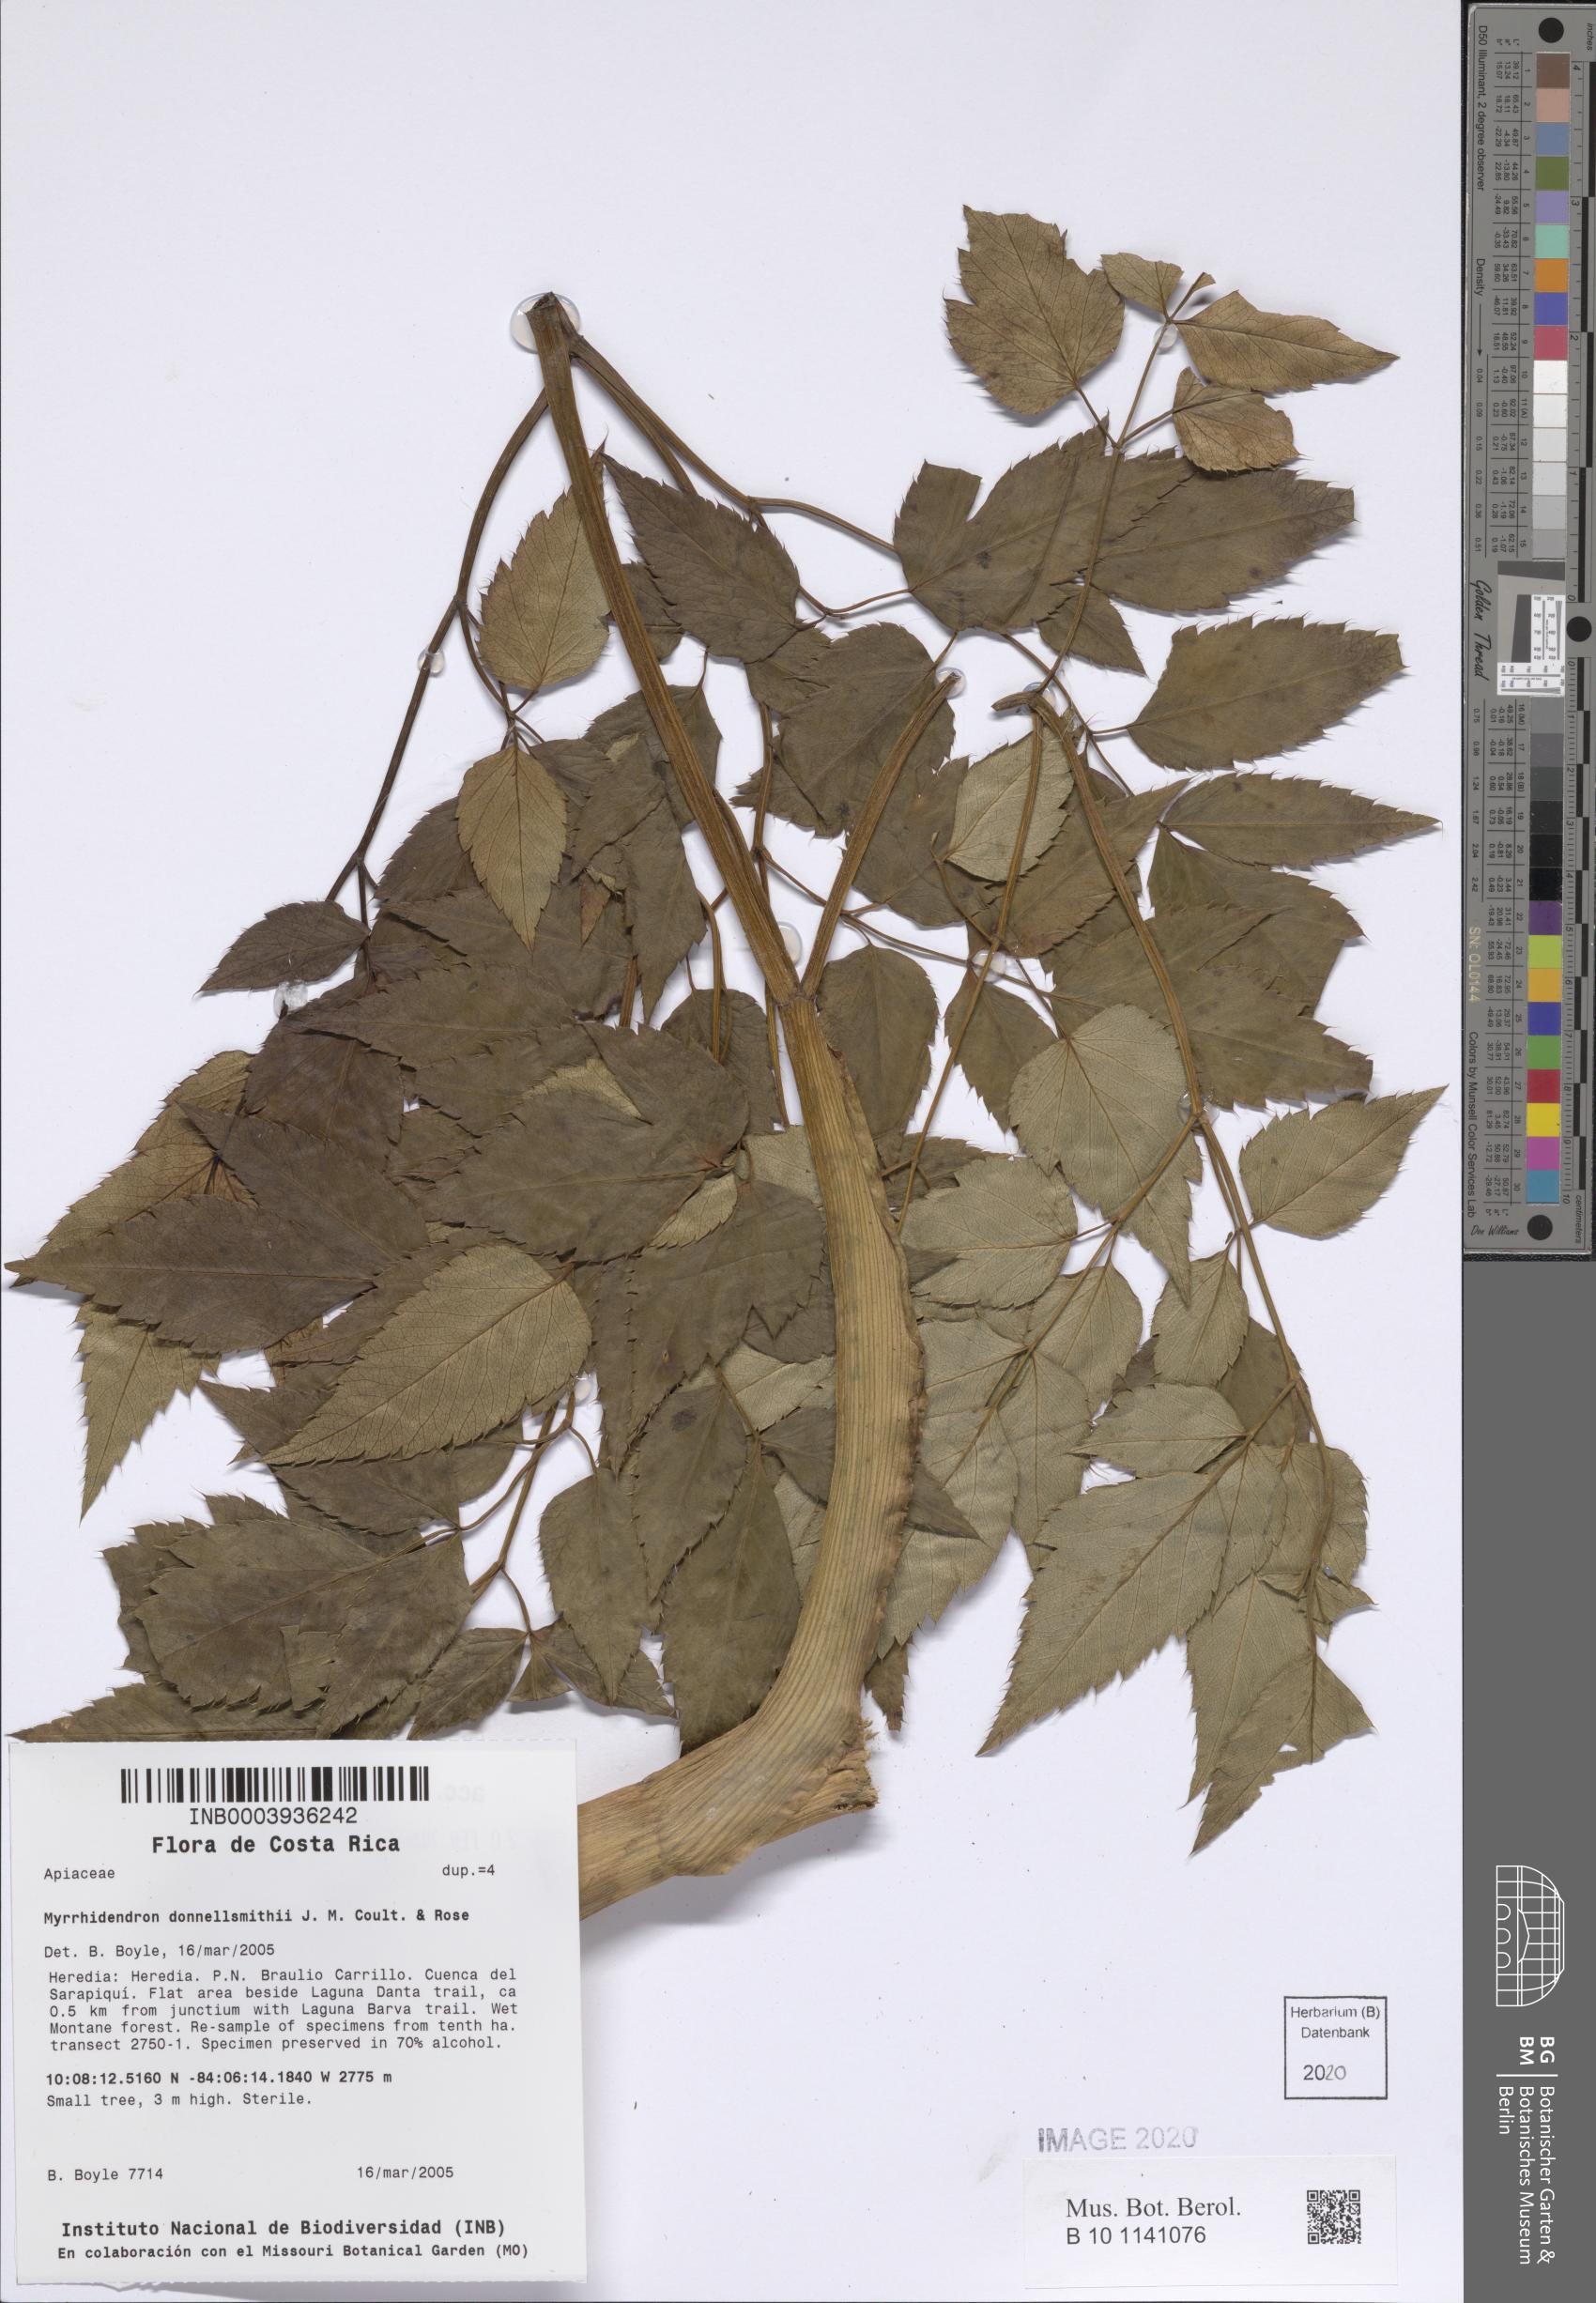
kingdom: Plantae
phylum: Tracheophyta
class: Magnoliopsida
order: Apiales
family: Apiaceae
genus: Myrrhidendron
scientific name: Myrrhidendron donnellsmithii
